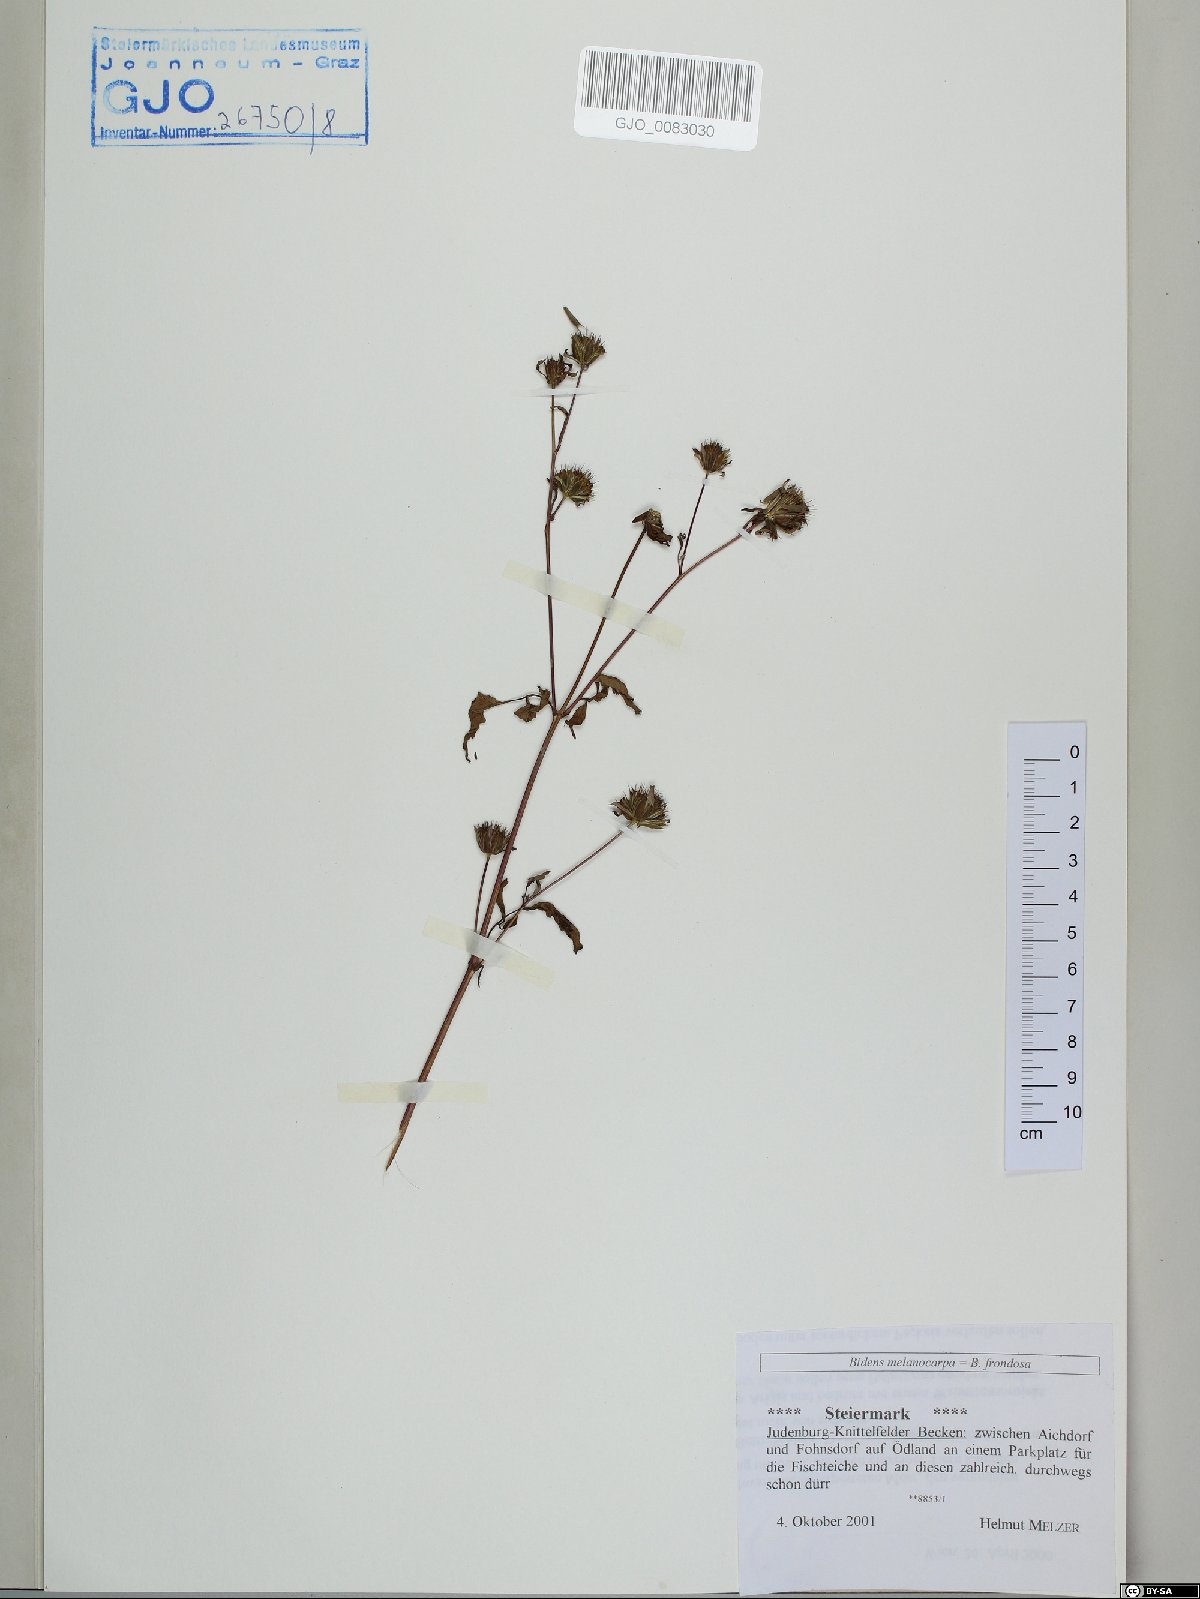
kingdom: Plantae
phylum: Tracheophyta
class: Magnoliopsida
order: Asterales
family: Asteraceae
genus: Bidens
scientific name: Bidens frondosa
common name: Beggarticks
